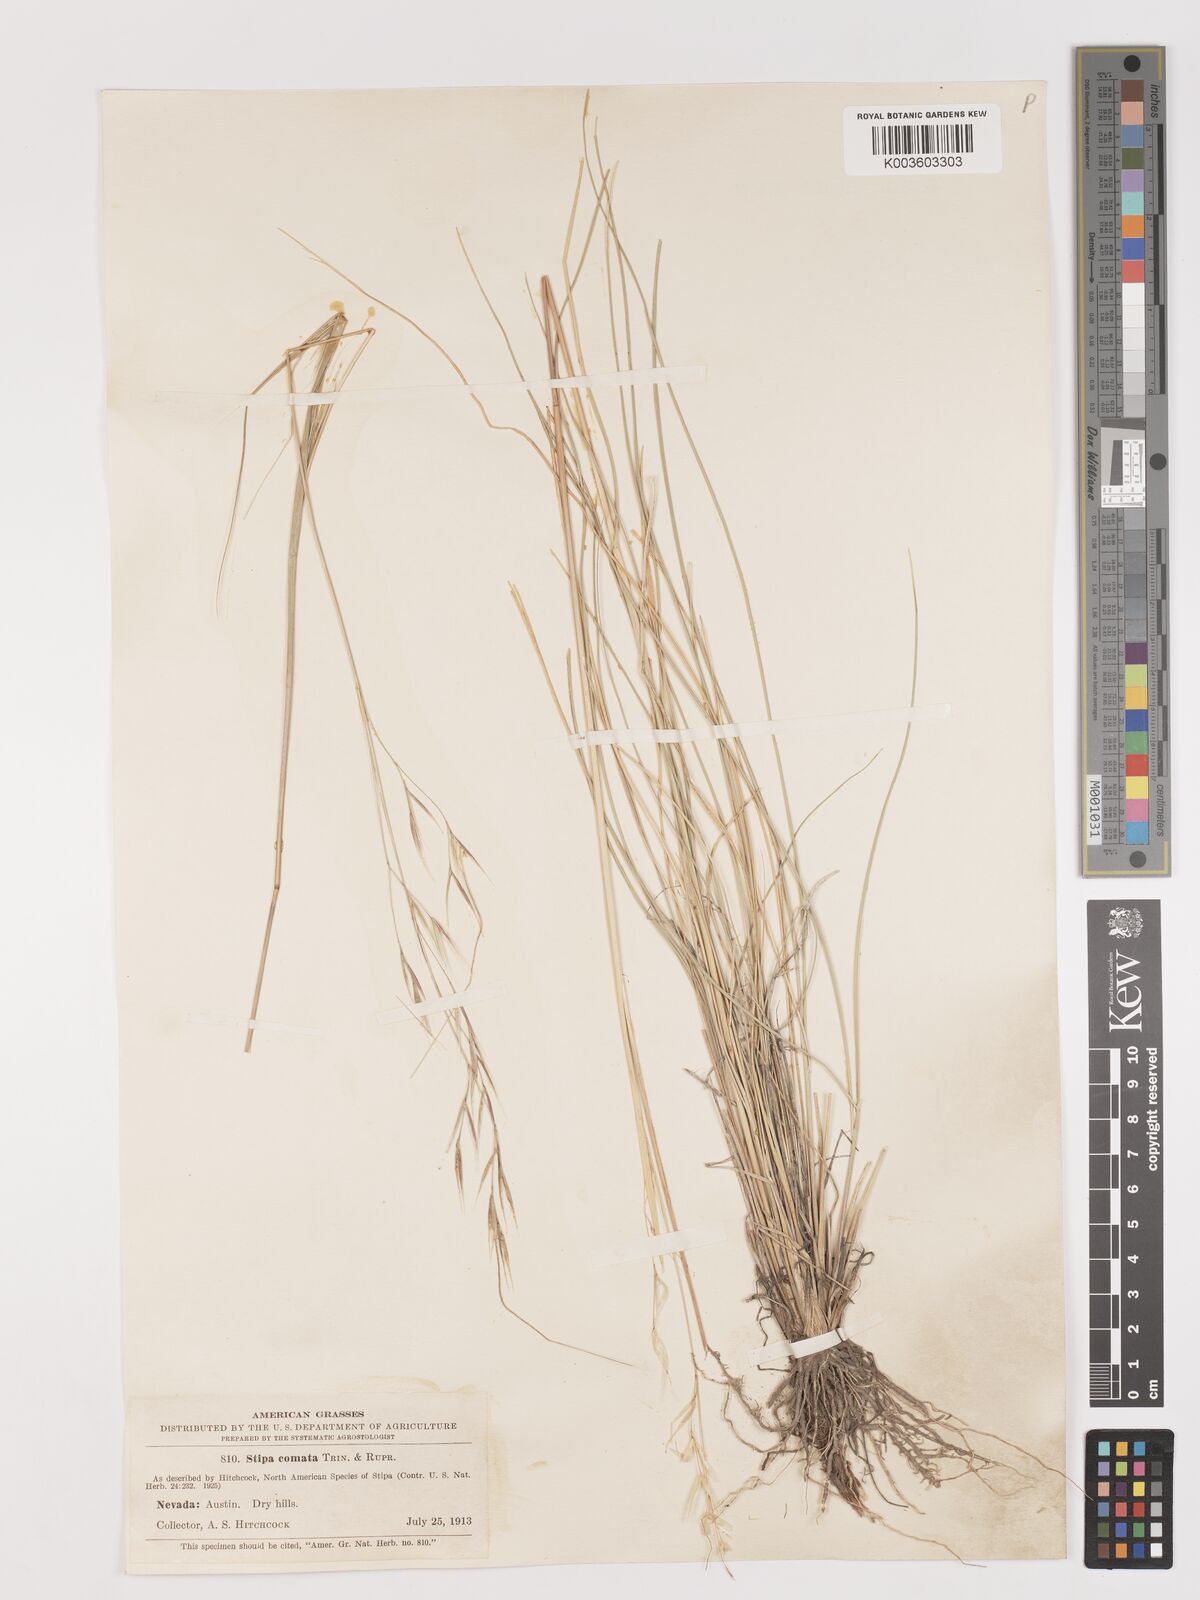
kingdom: Plantae
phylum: Tracheophyta
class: Liliopsida
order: Poales
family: Poaceae
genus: Stipa
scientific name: Stipa
